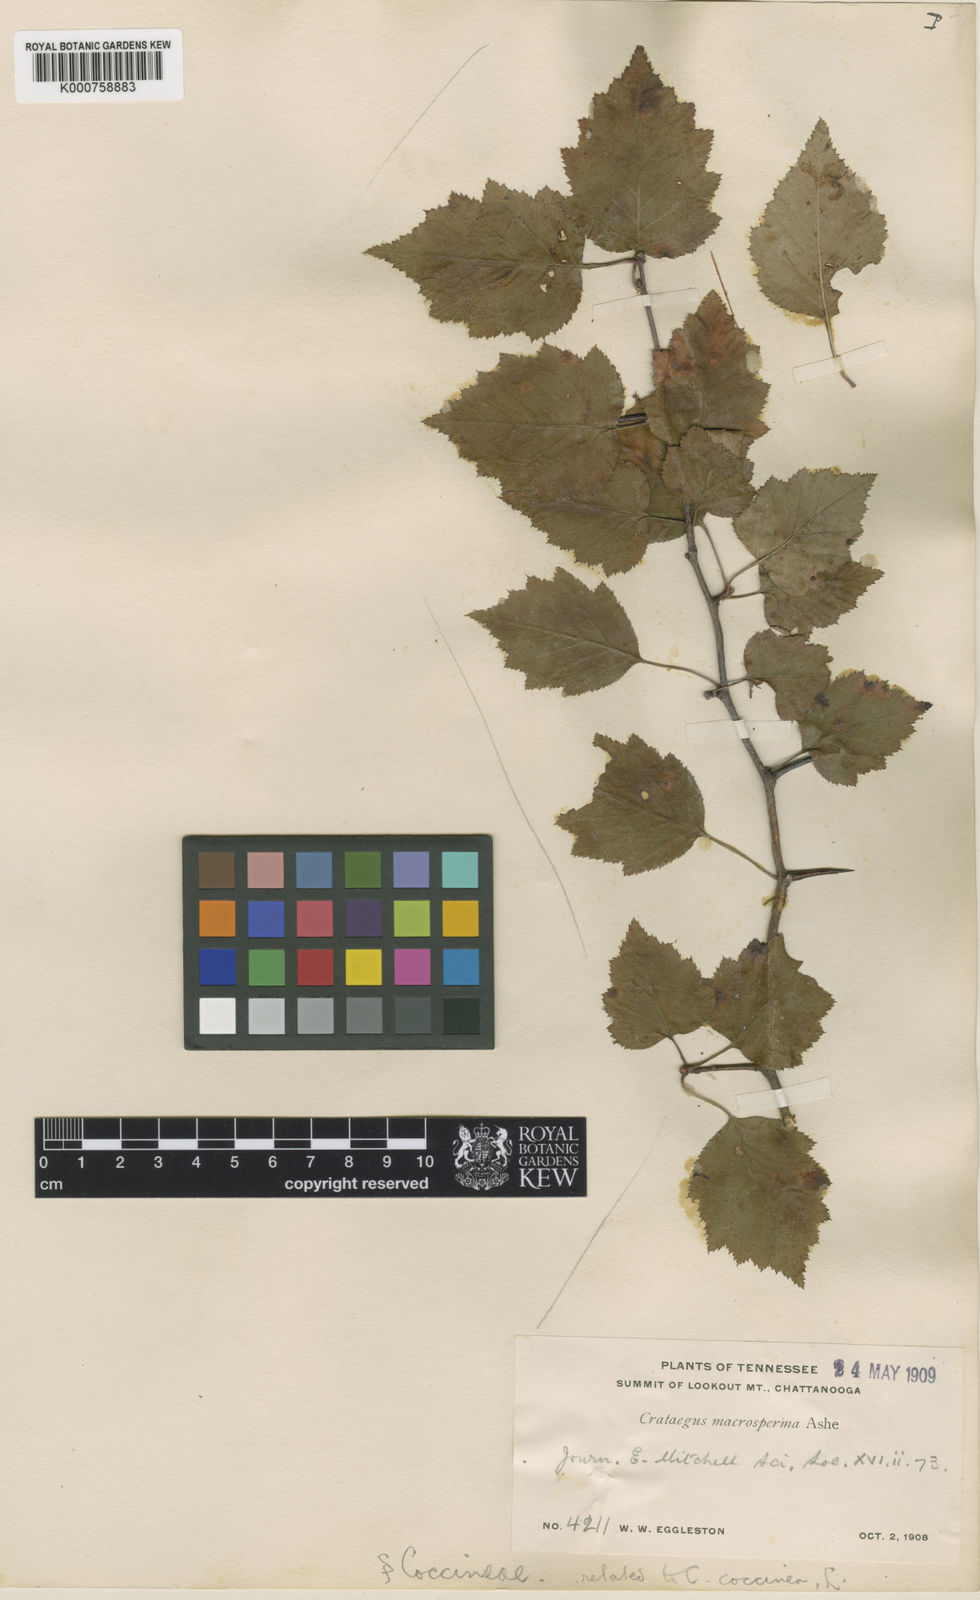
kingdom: Plantae
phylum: Tracheophyta
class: Magnoliopsida
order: Rosales
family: Rosaceae
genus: Crataegus
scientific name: Crataegus macrosperma
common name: Variable hawthorn
